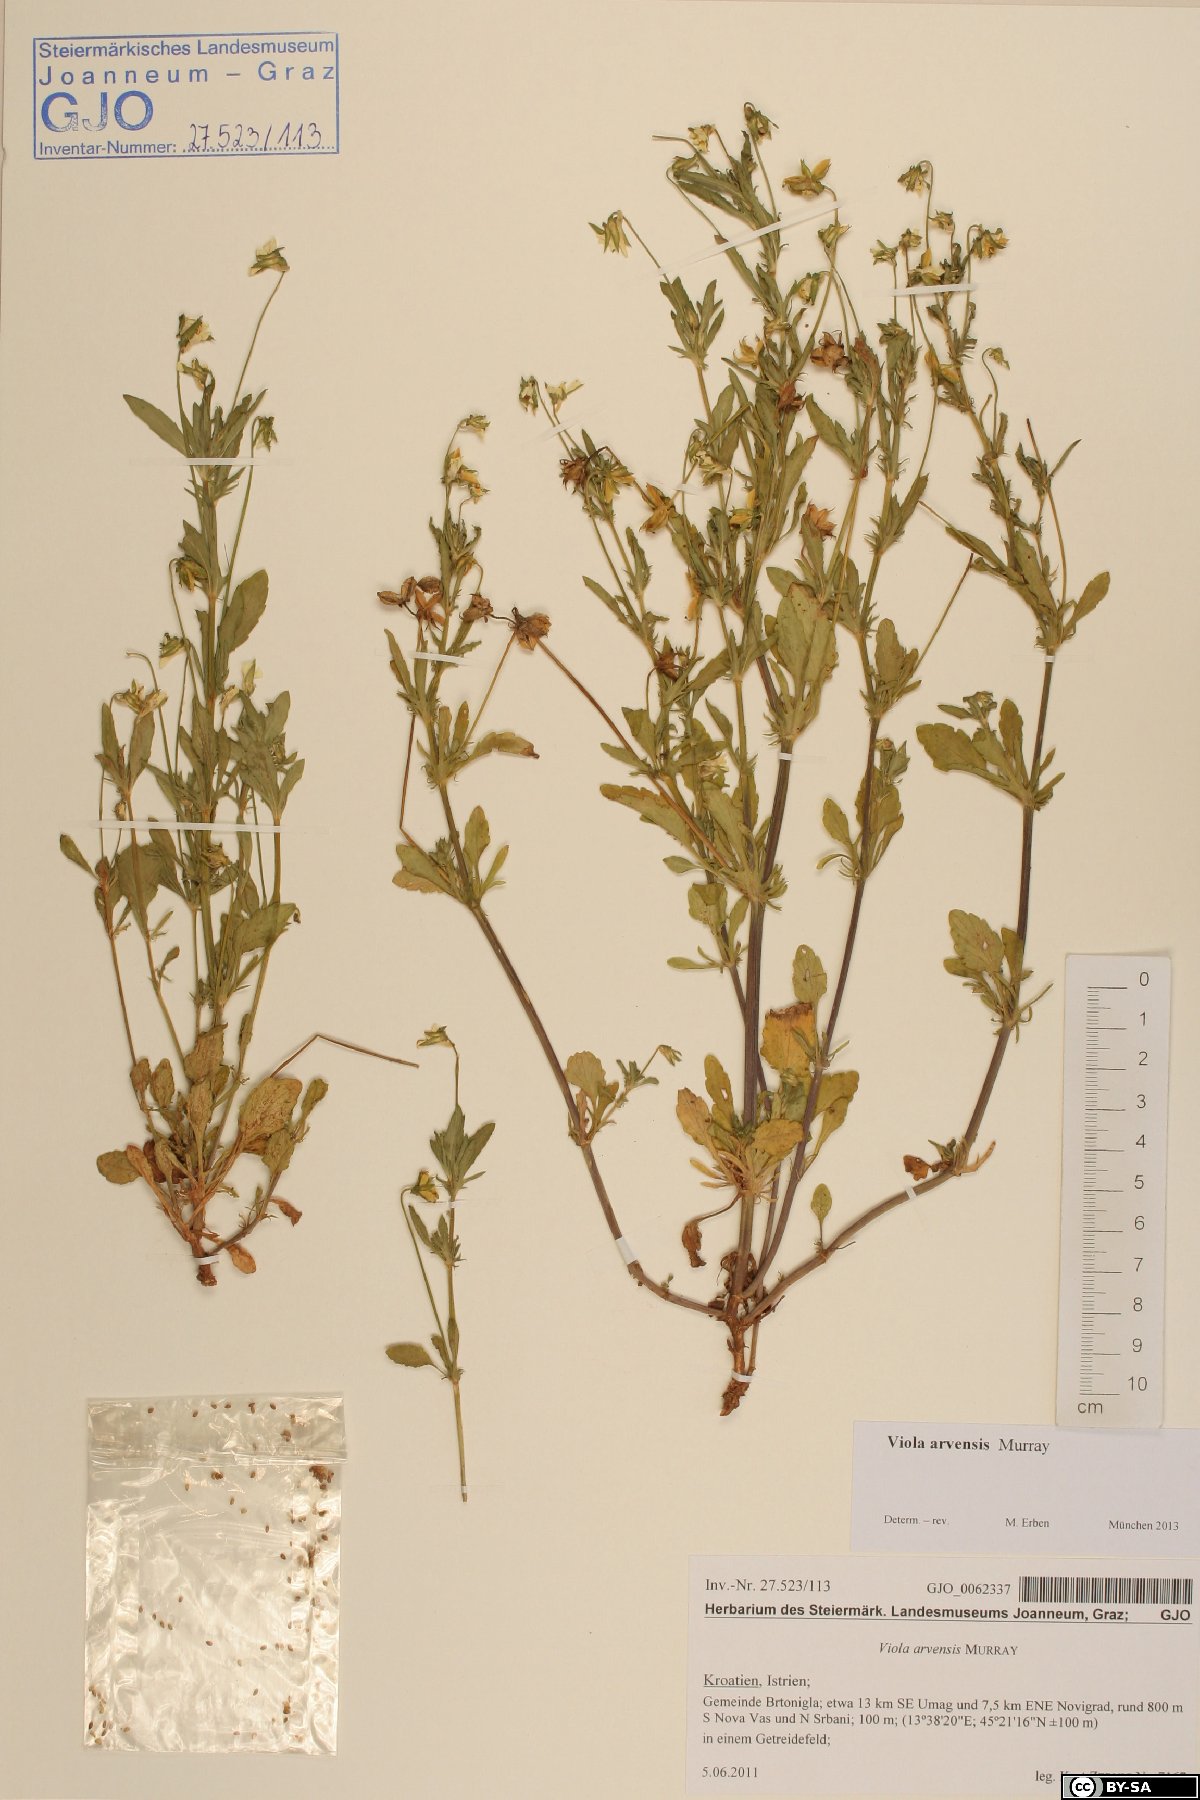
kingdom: Plantae
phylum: Tracheophyta
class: Magnoliopsida
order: Malpighiales
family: Violaceae
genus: Viola
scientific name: Viola arvensis
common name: Field pansy
